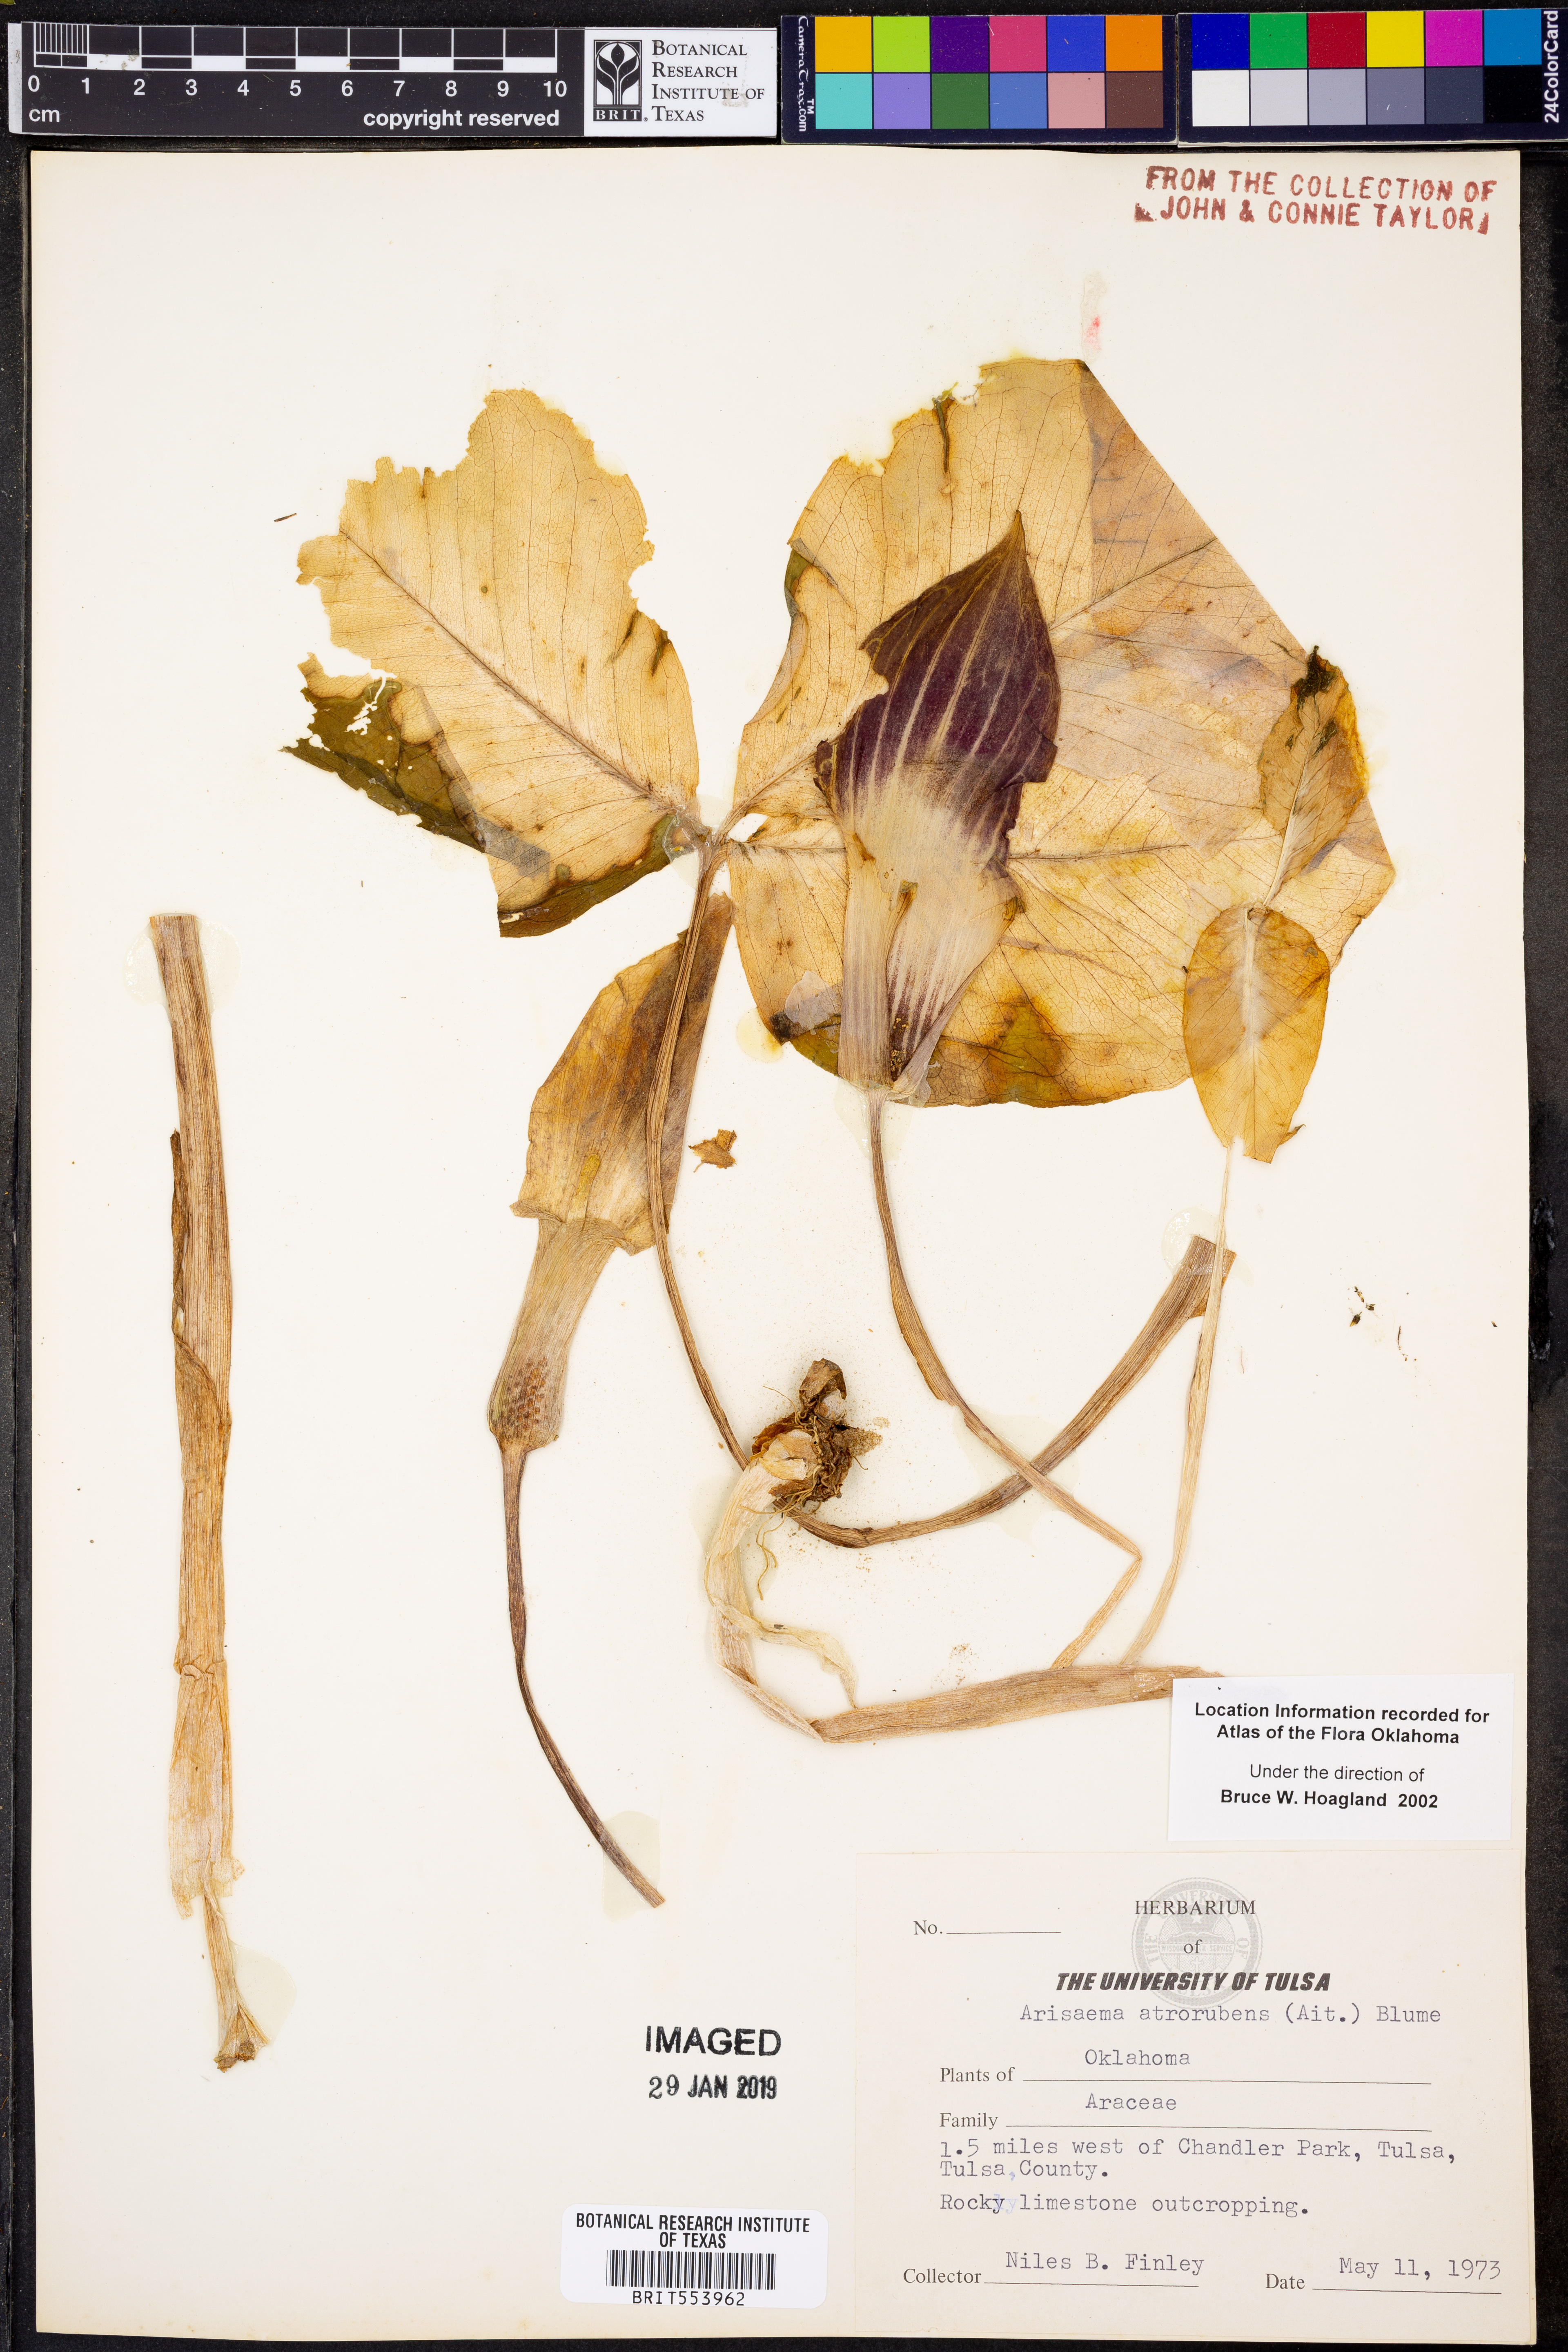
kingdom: Plantae
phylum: Tracheophyta
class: Liliopsida
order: Alismatales
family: Araceae
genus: Arisaema
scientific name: Arisaema triphyllum
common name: Jack-in-the-pulpit
